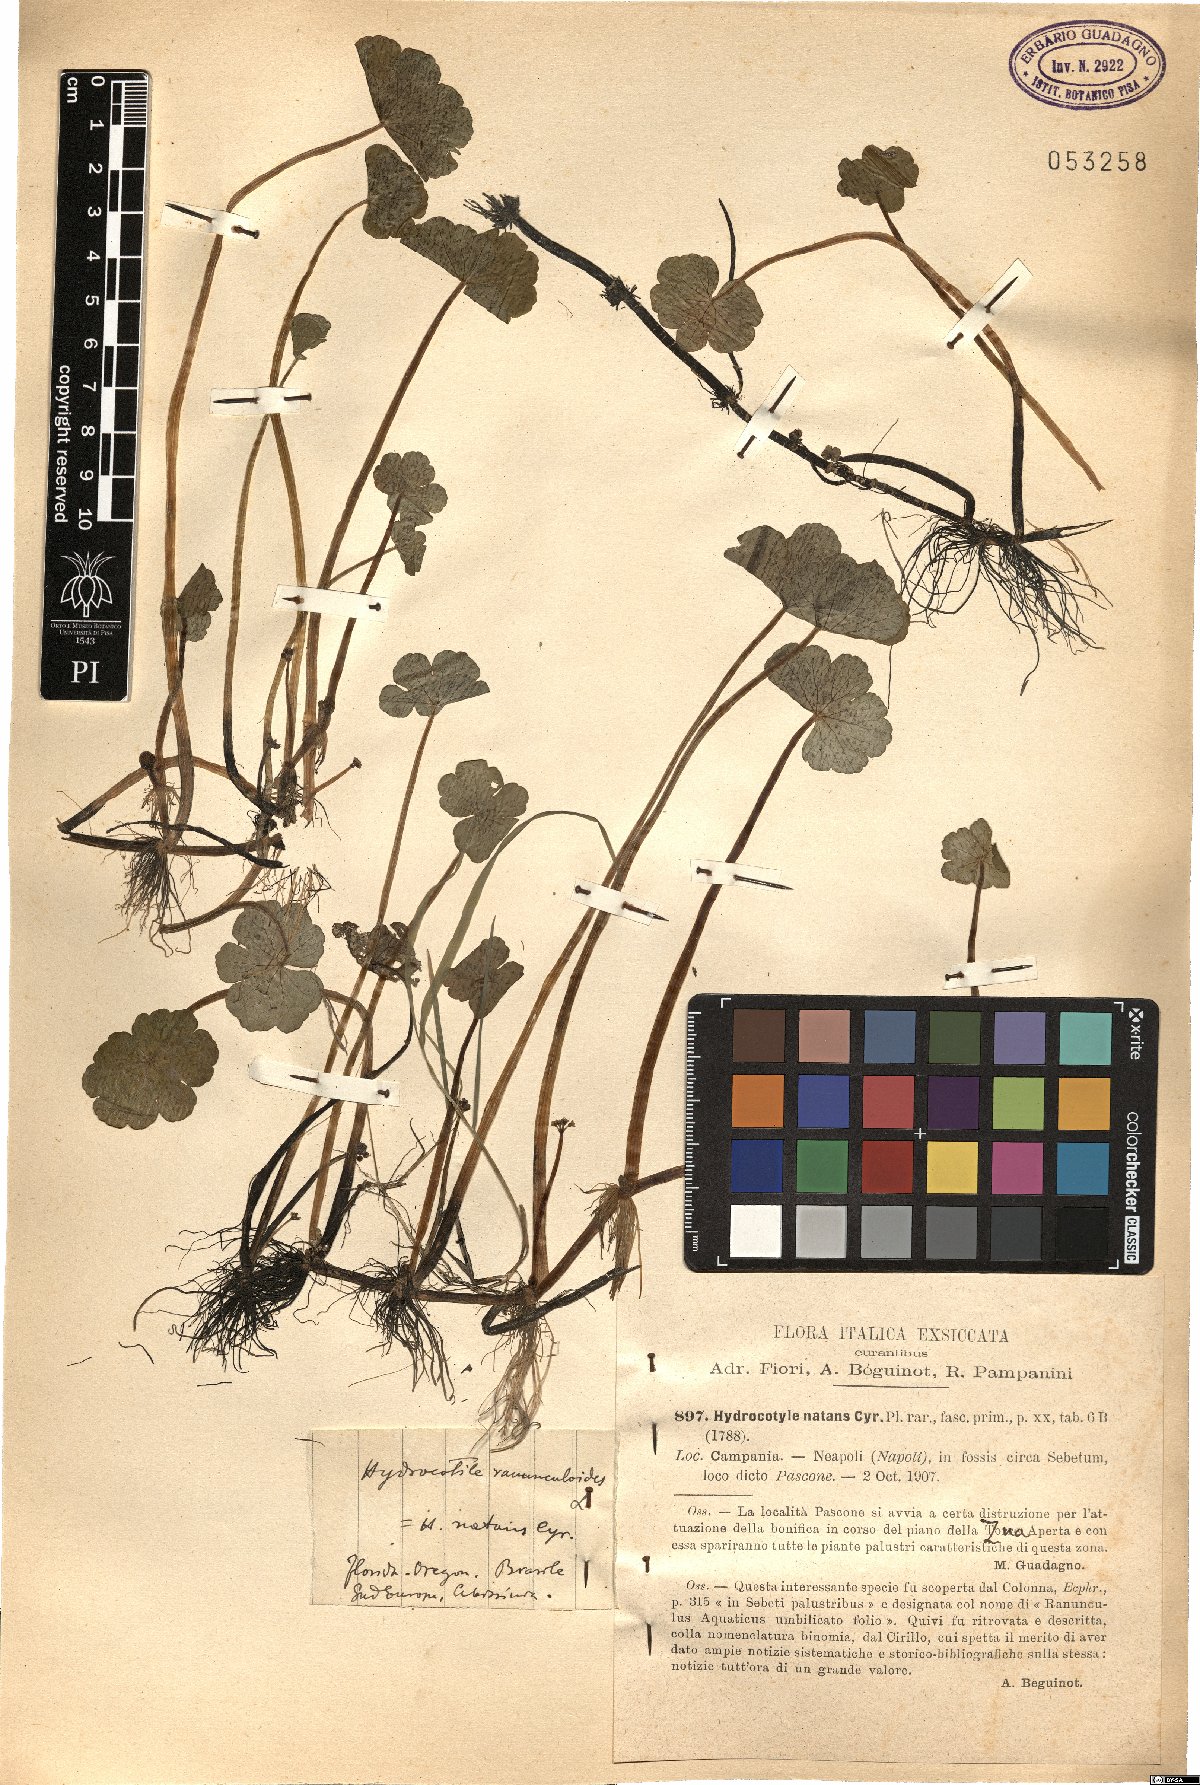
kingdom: Plantae
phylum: Tracheophyta
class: Magnoliopsida
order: Apiales
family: Araliaceae
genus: Hydrocotyle
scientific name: Hydrocotyle ranunculoides
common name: Floating pennywort
